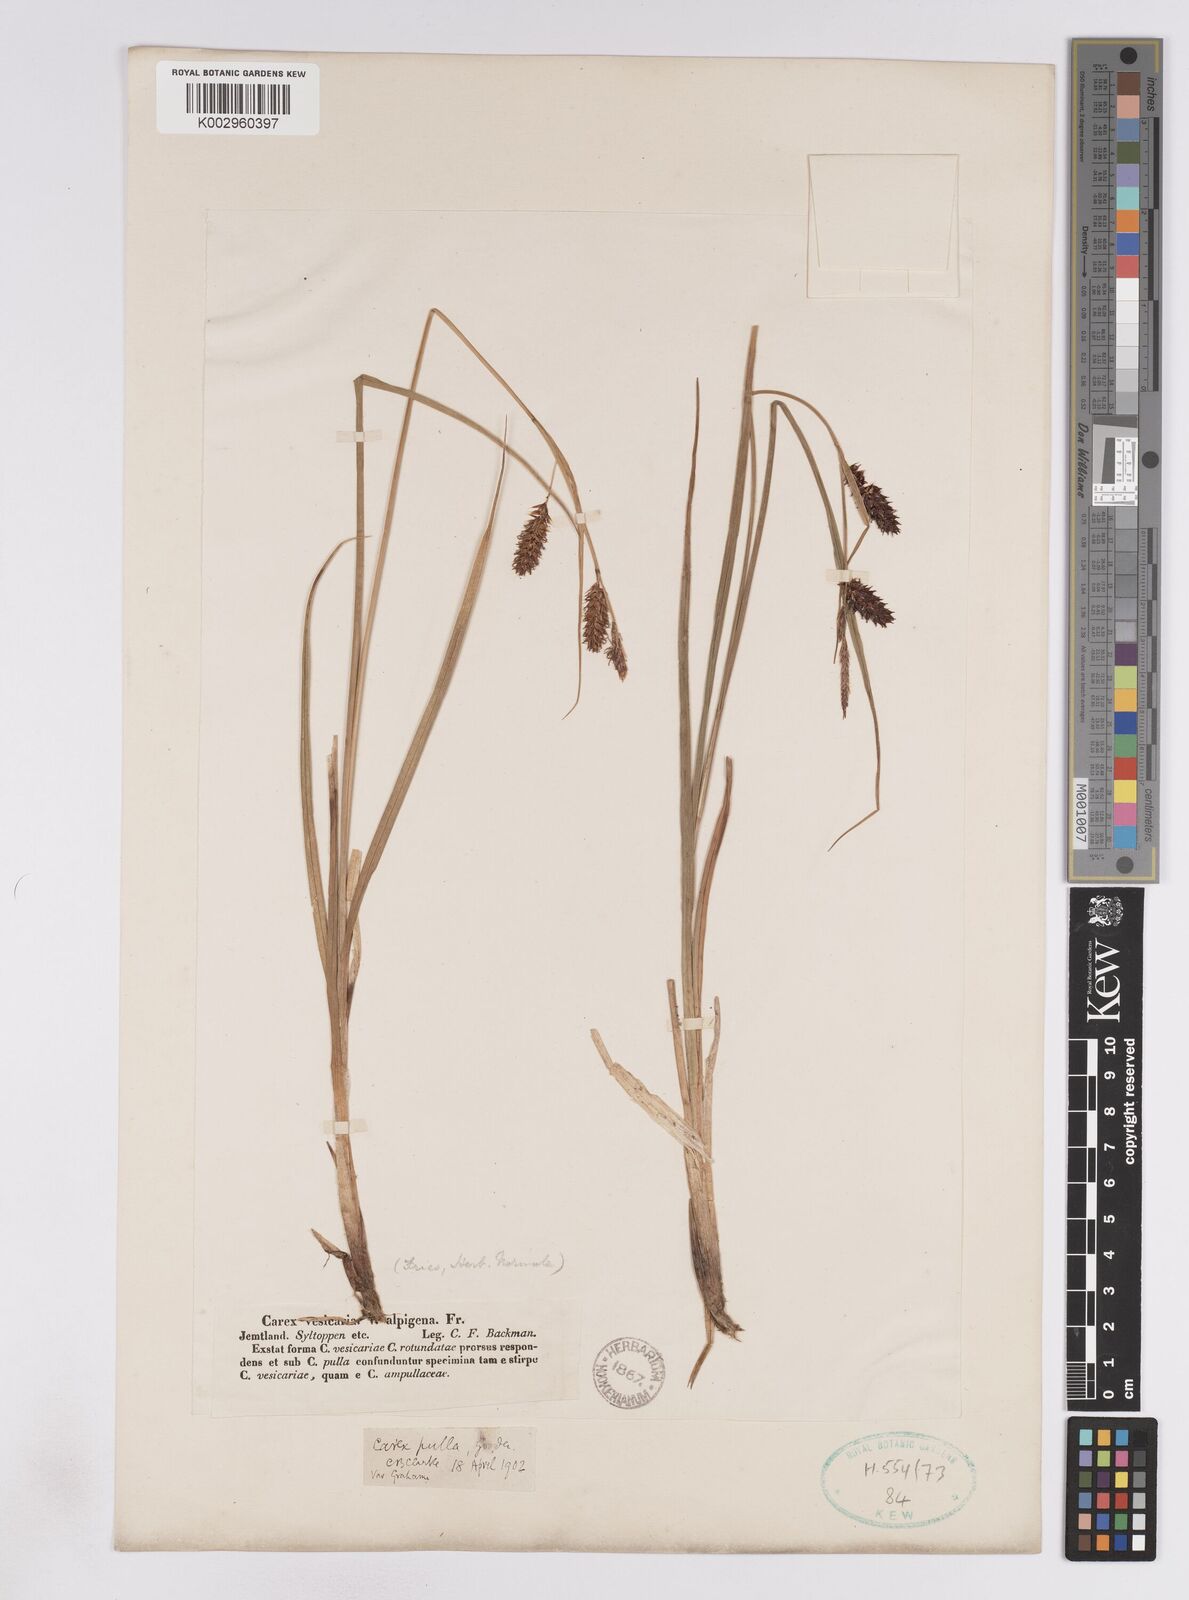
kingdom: Plantae
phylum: Tracheophyta
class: Liliopsida
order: Poales
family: Cyperaceae
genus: Carex
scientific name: Carex rostrata
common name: Bottle sedge
